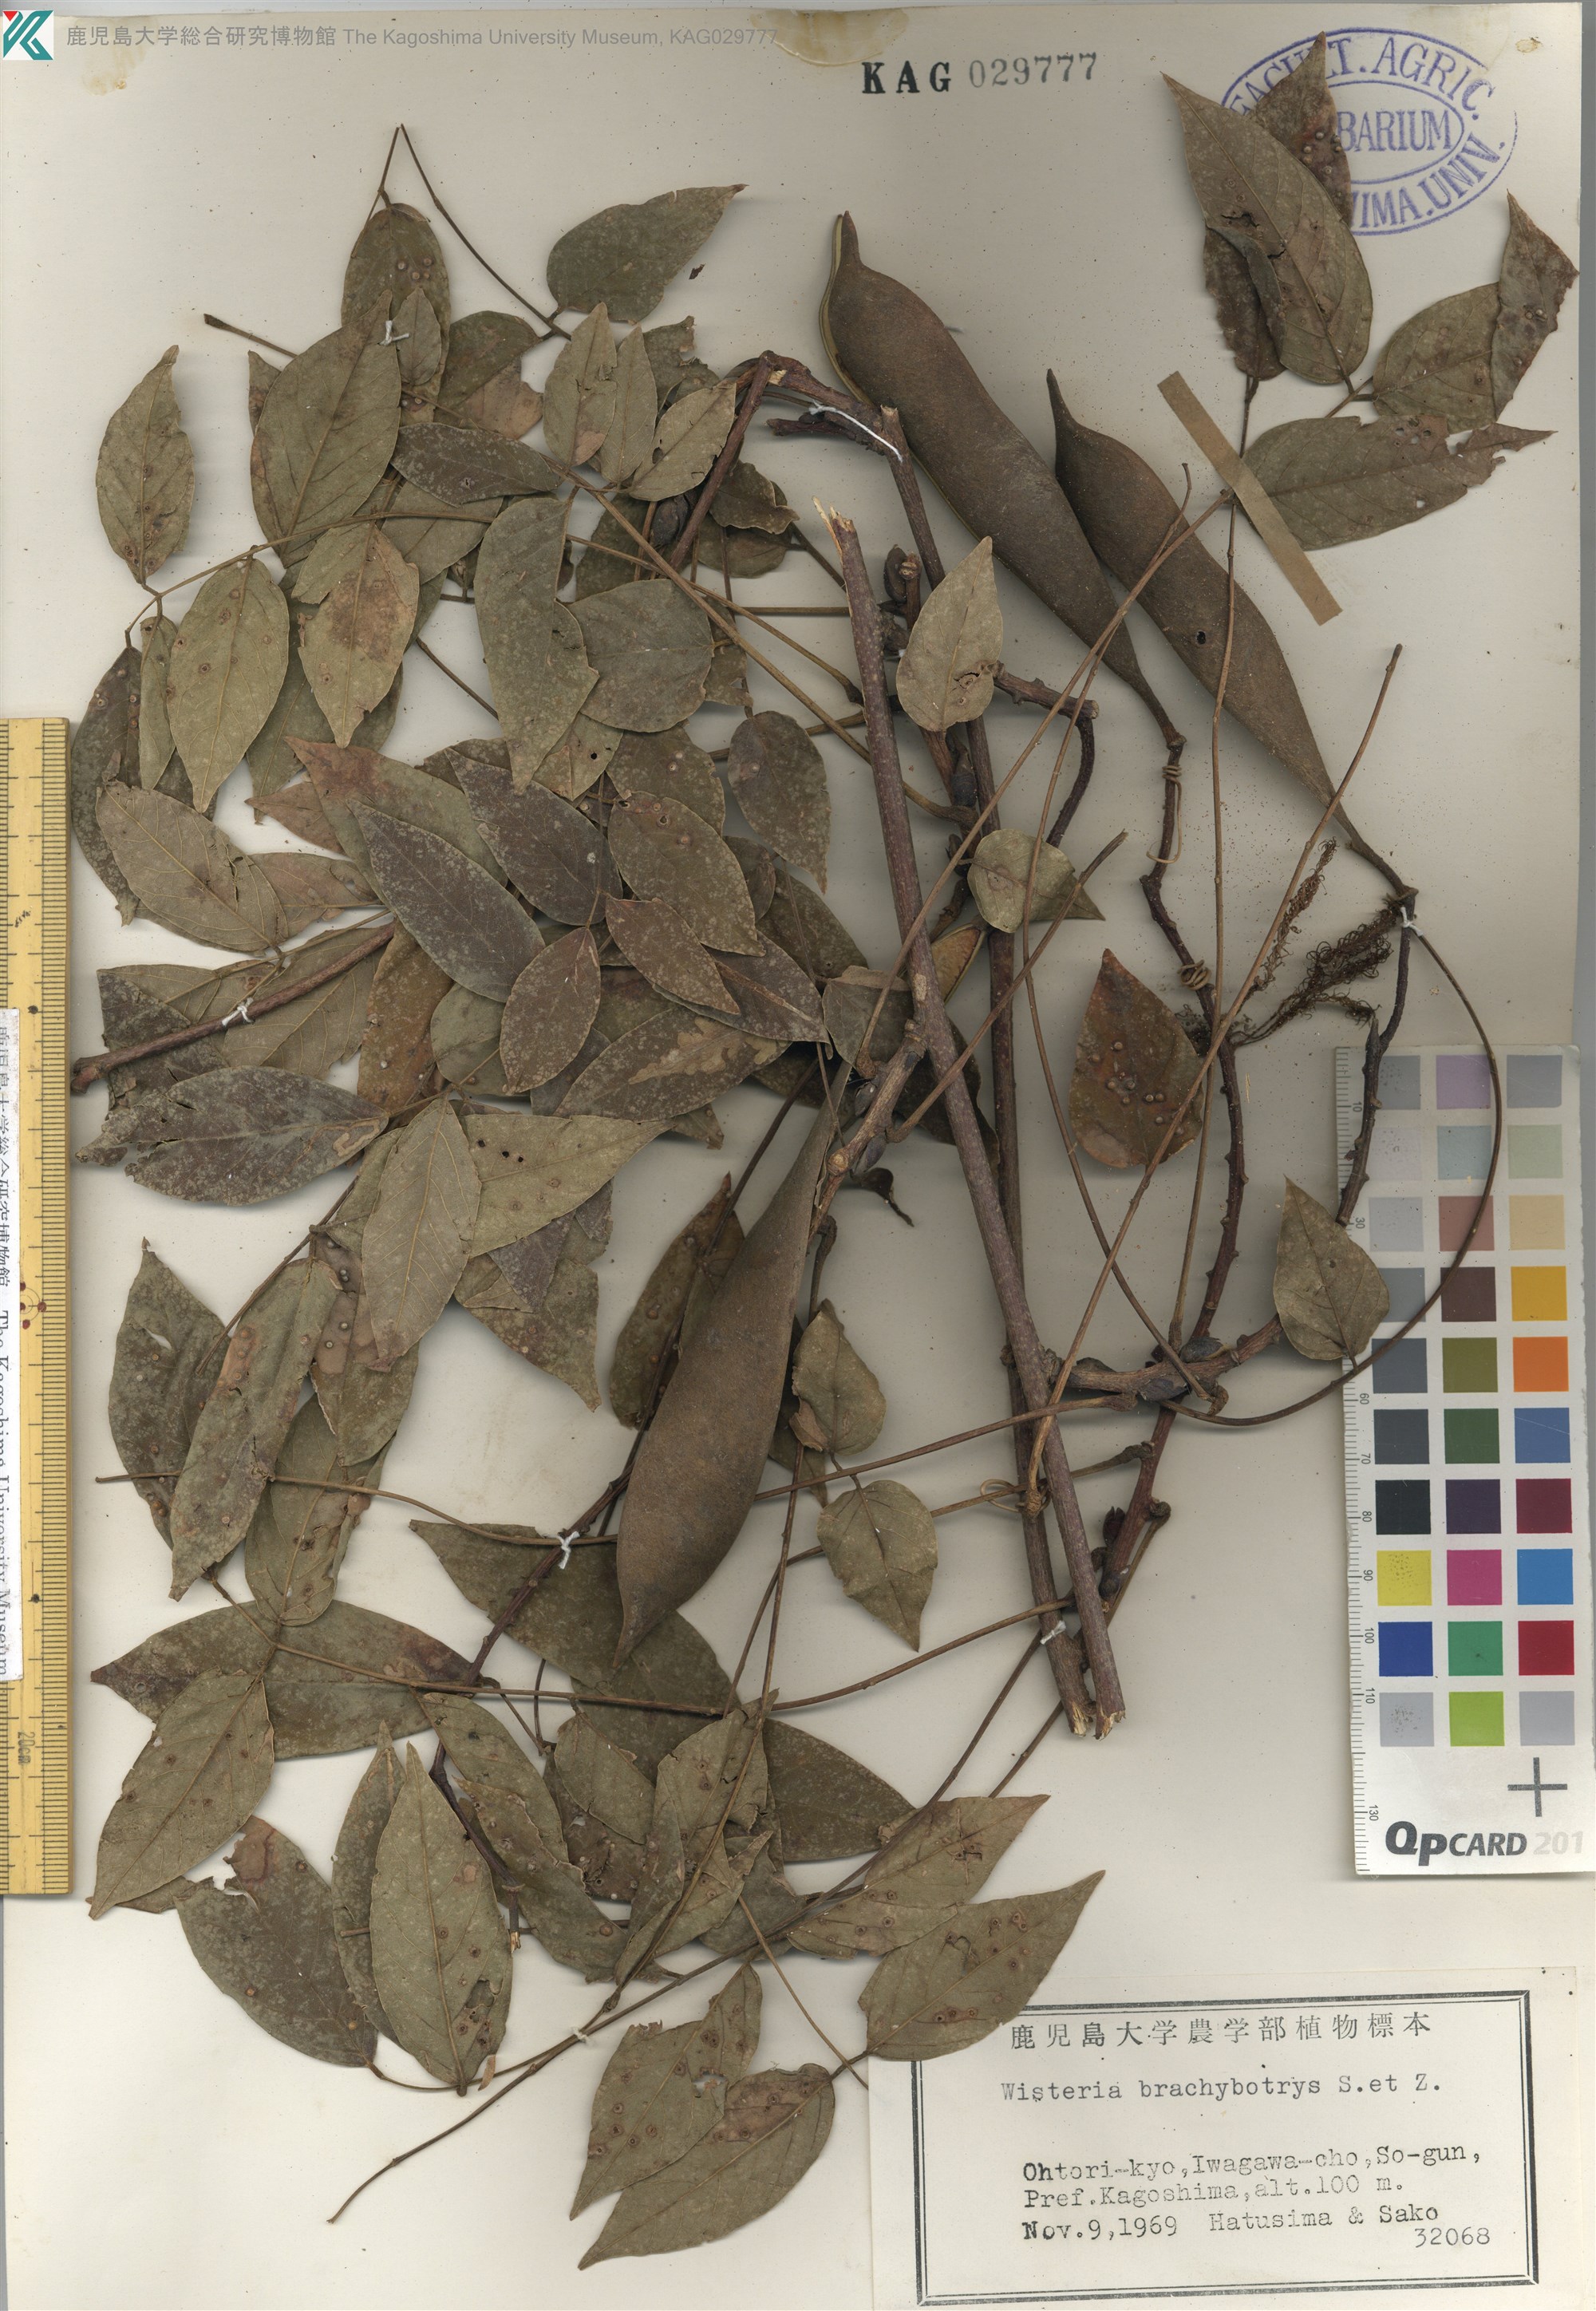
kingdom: Plantae
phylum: Tracheophyta
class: Magnoliopsida
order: Fabales
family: Fabaceae
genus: Wisteria
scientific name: Wisteria brachybotrys
